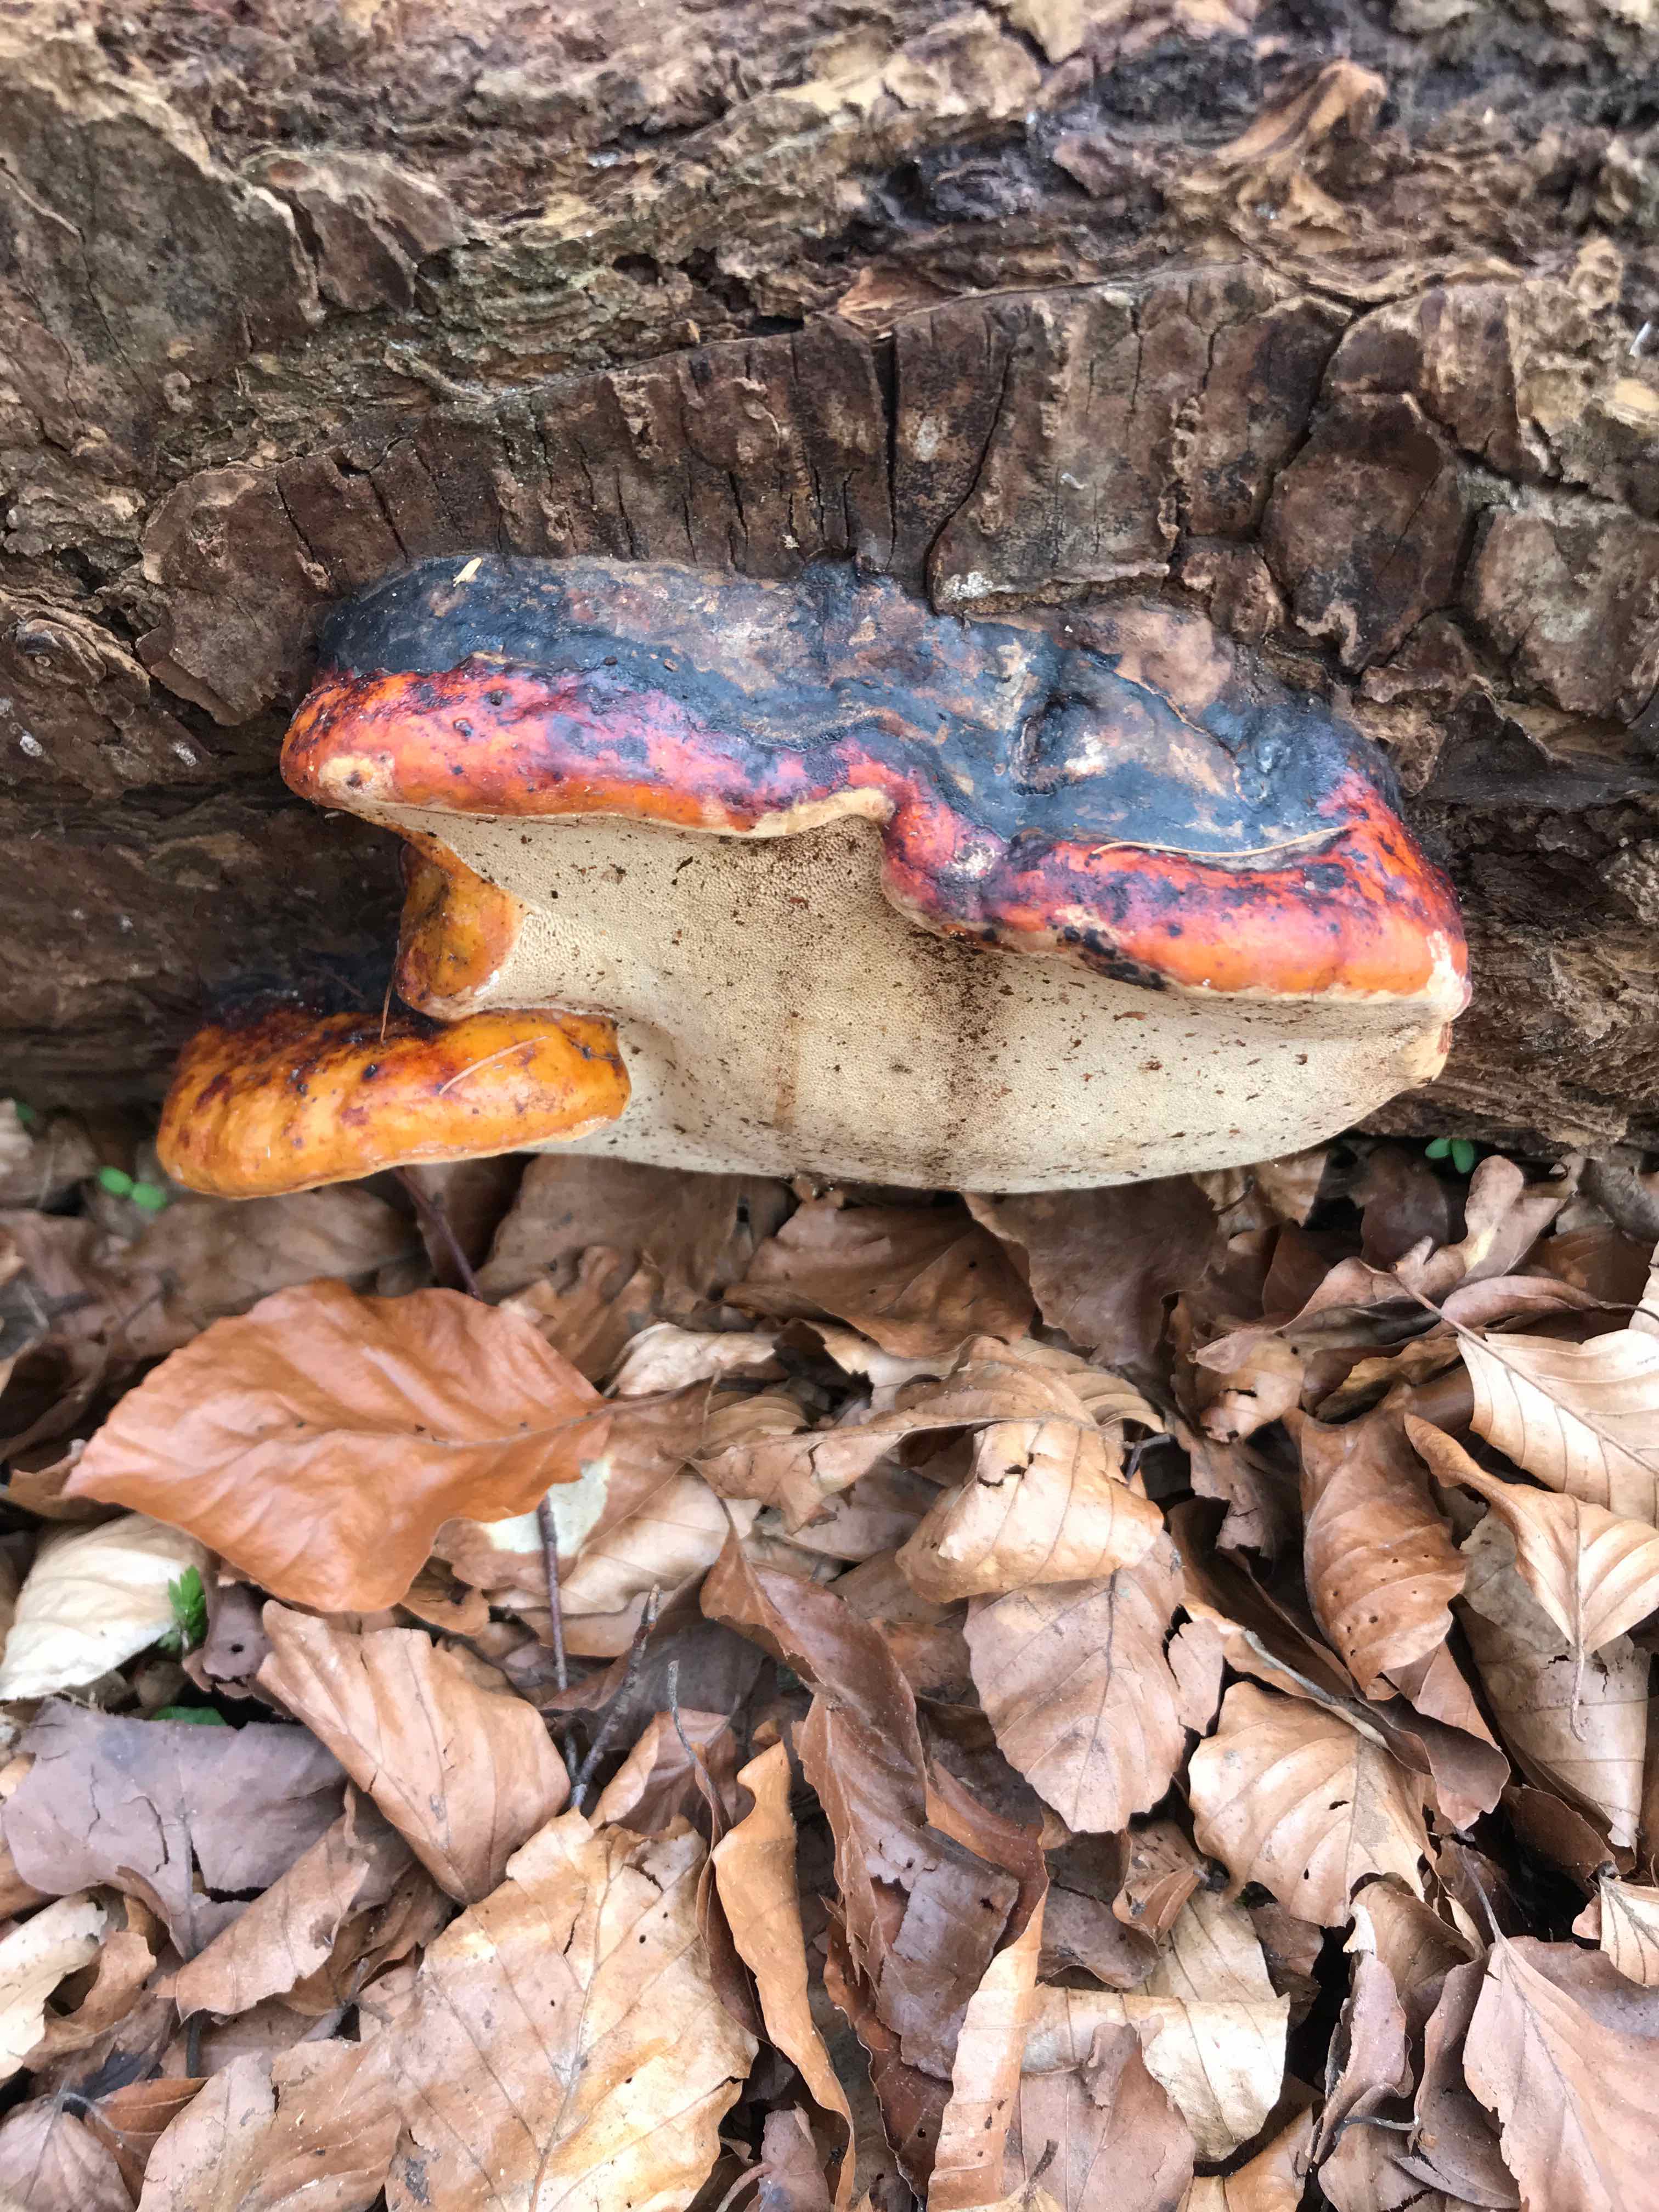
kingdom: Fungi
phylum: Basidiomycota
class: Agaricomycetes
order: Polyporales
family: Fomitopsidaceae
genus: Fomitopsis
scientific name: Fomitopsis pinicola
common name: randbæltet hovporesvamp
